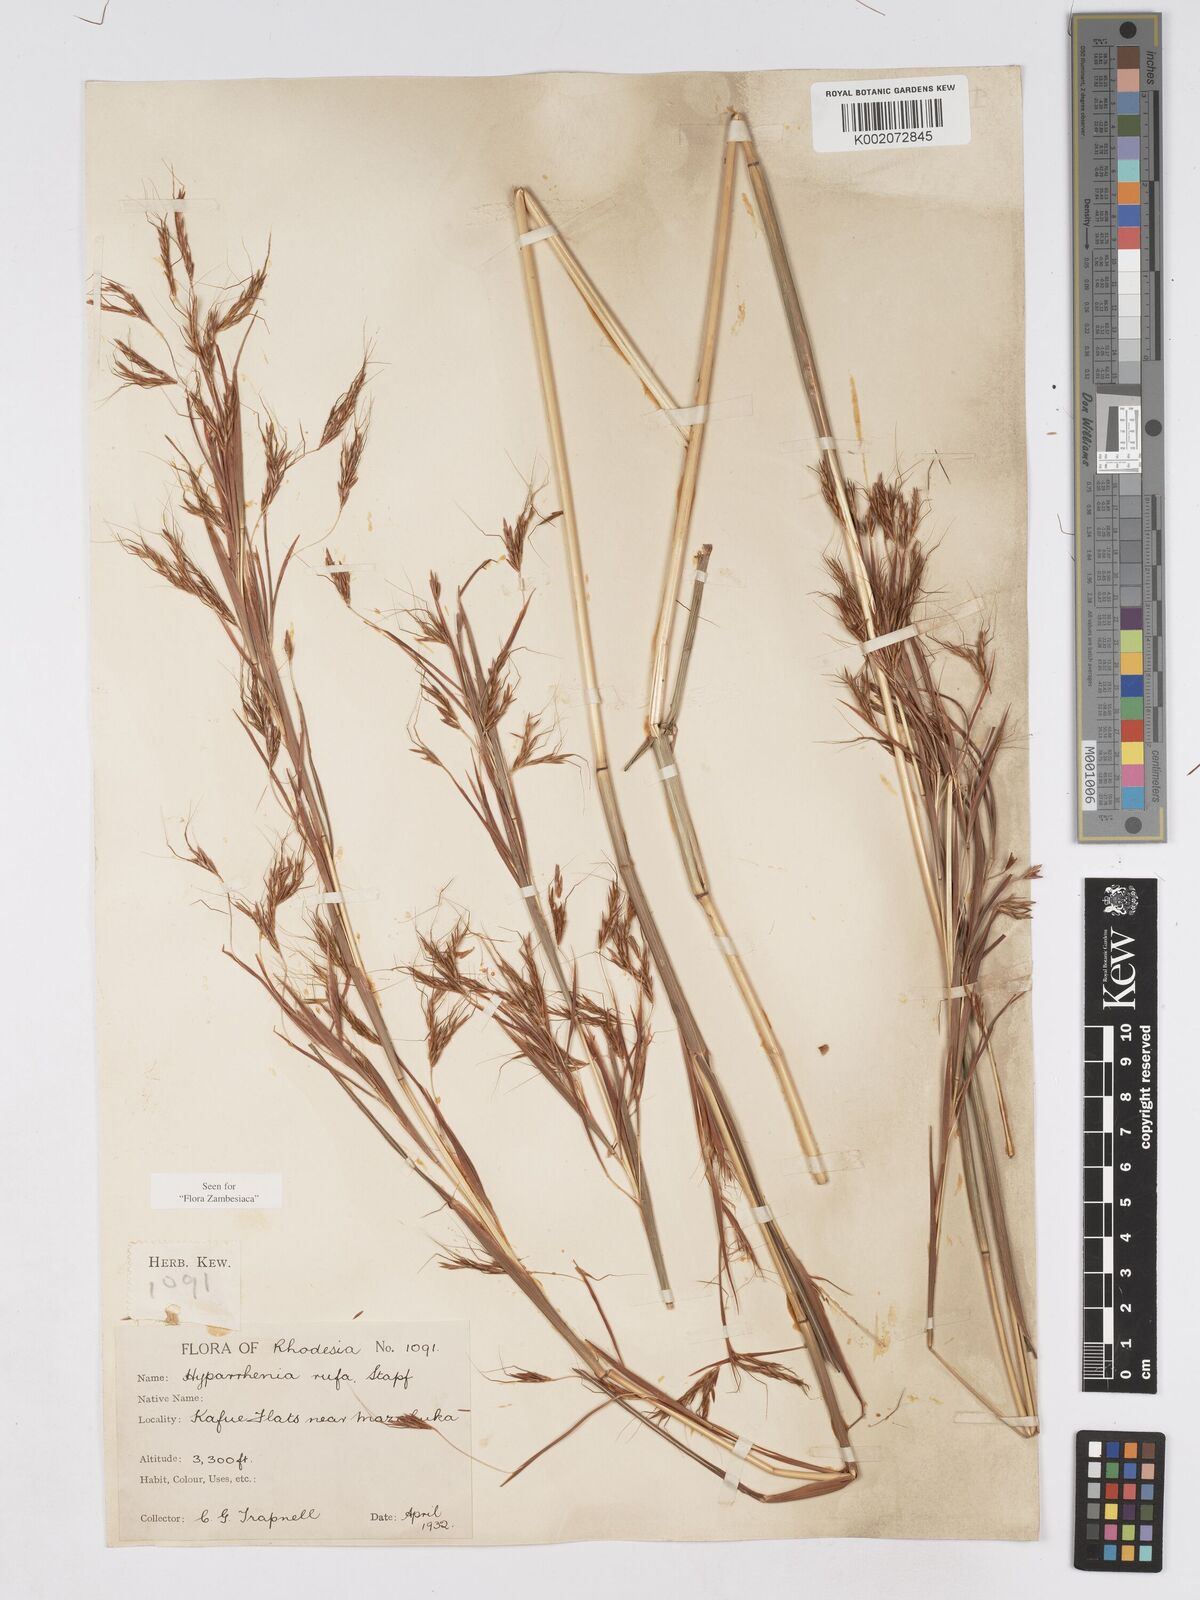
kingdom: Plantae
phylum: Tracheophyta
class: Liliopsida
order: Poales
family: Poaceae
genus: Hyparrhenia
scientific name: Hyparrhenia rufa
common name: Jaraguagrass
